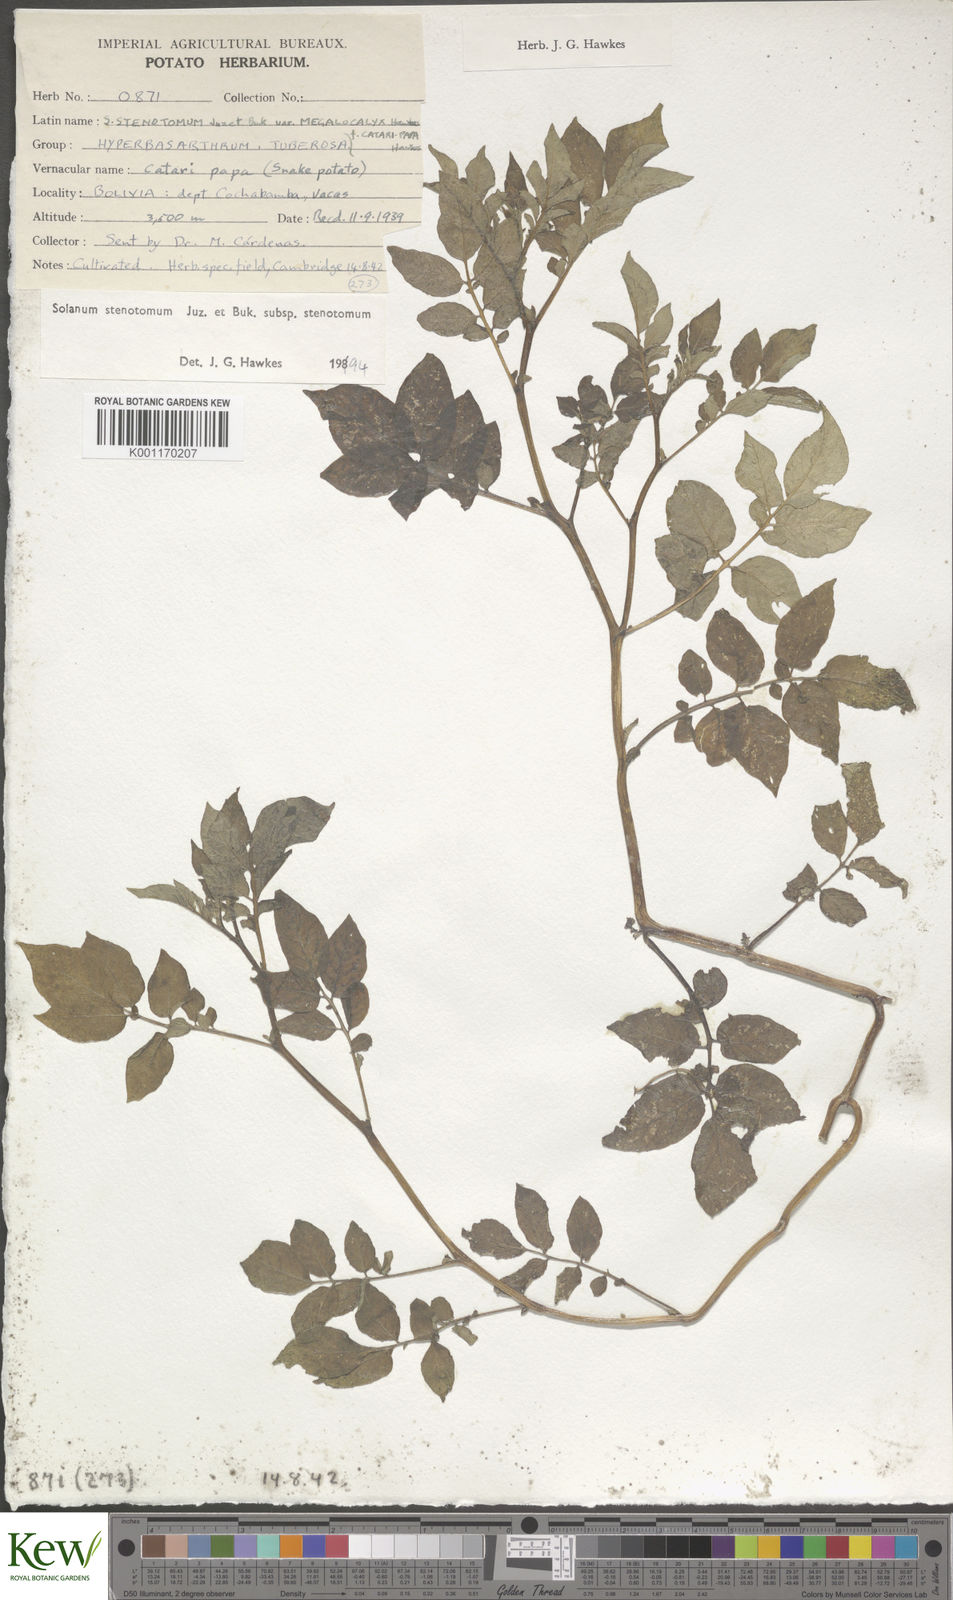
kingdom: Plantae
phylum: Tracheophyta
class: Magnoliopsida
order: Solanales
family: Solanaceae
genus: Solanum
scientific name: Solanum tuberosum
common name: Potato
